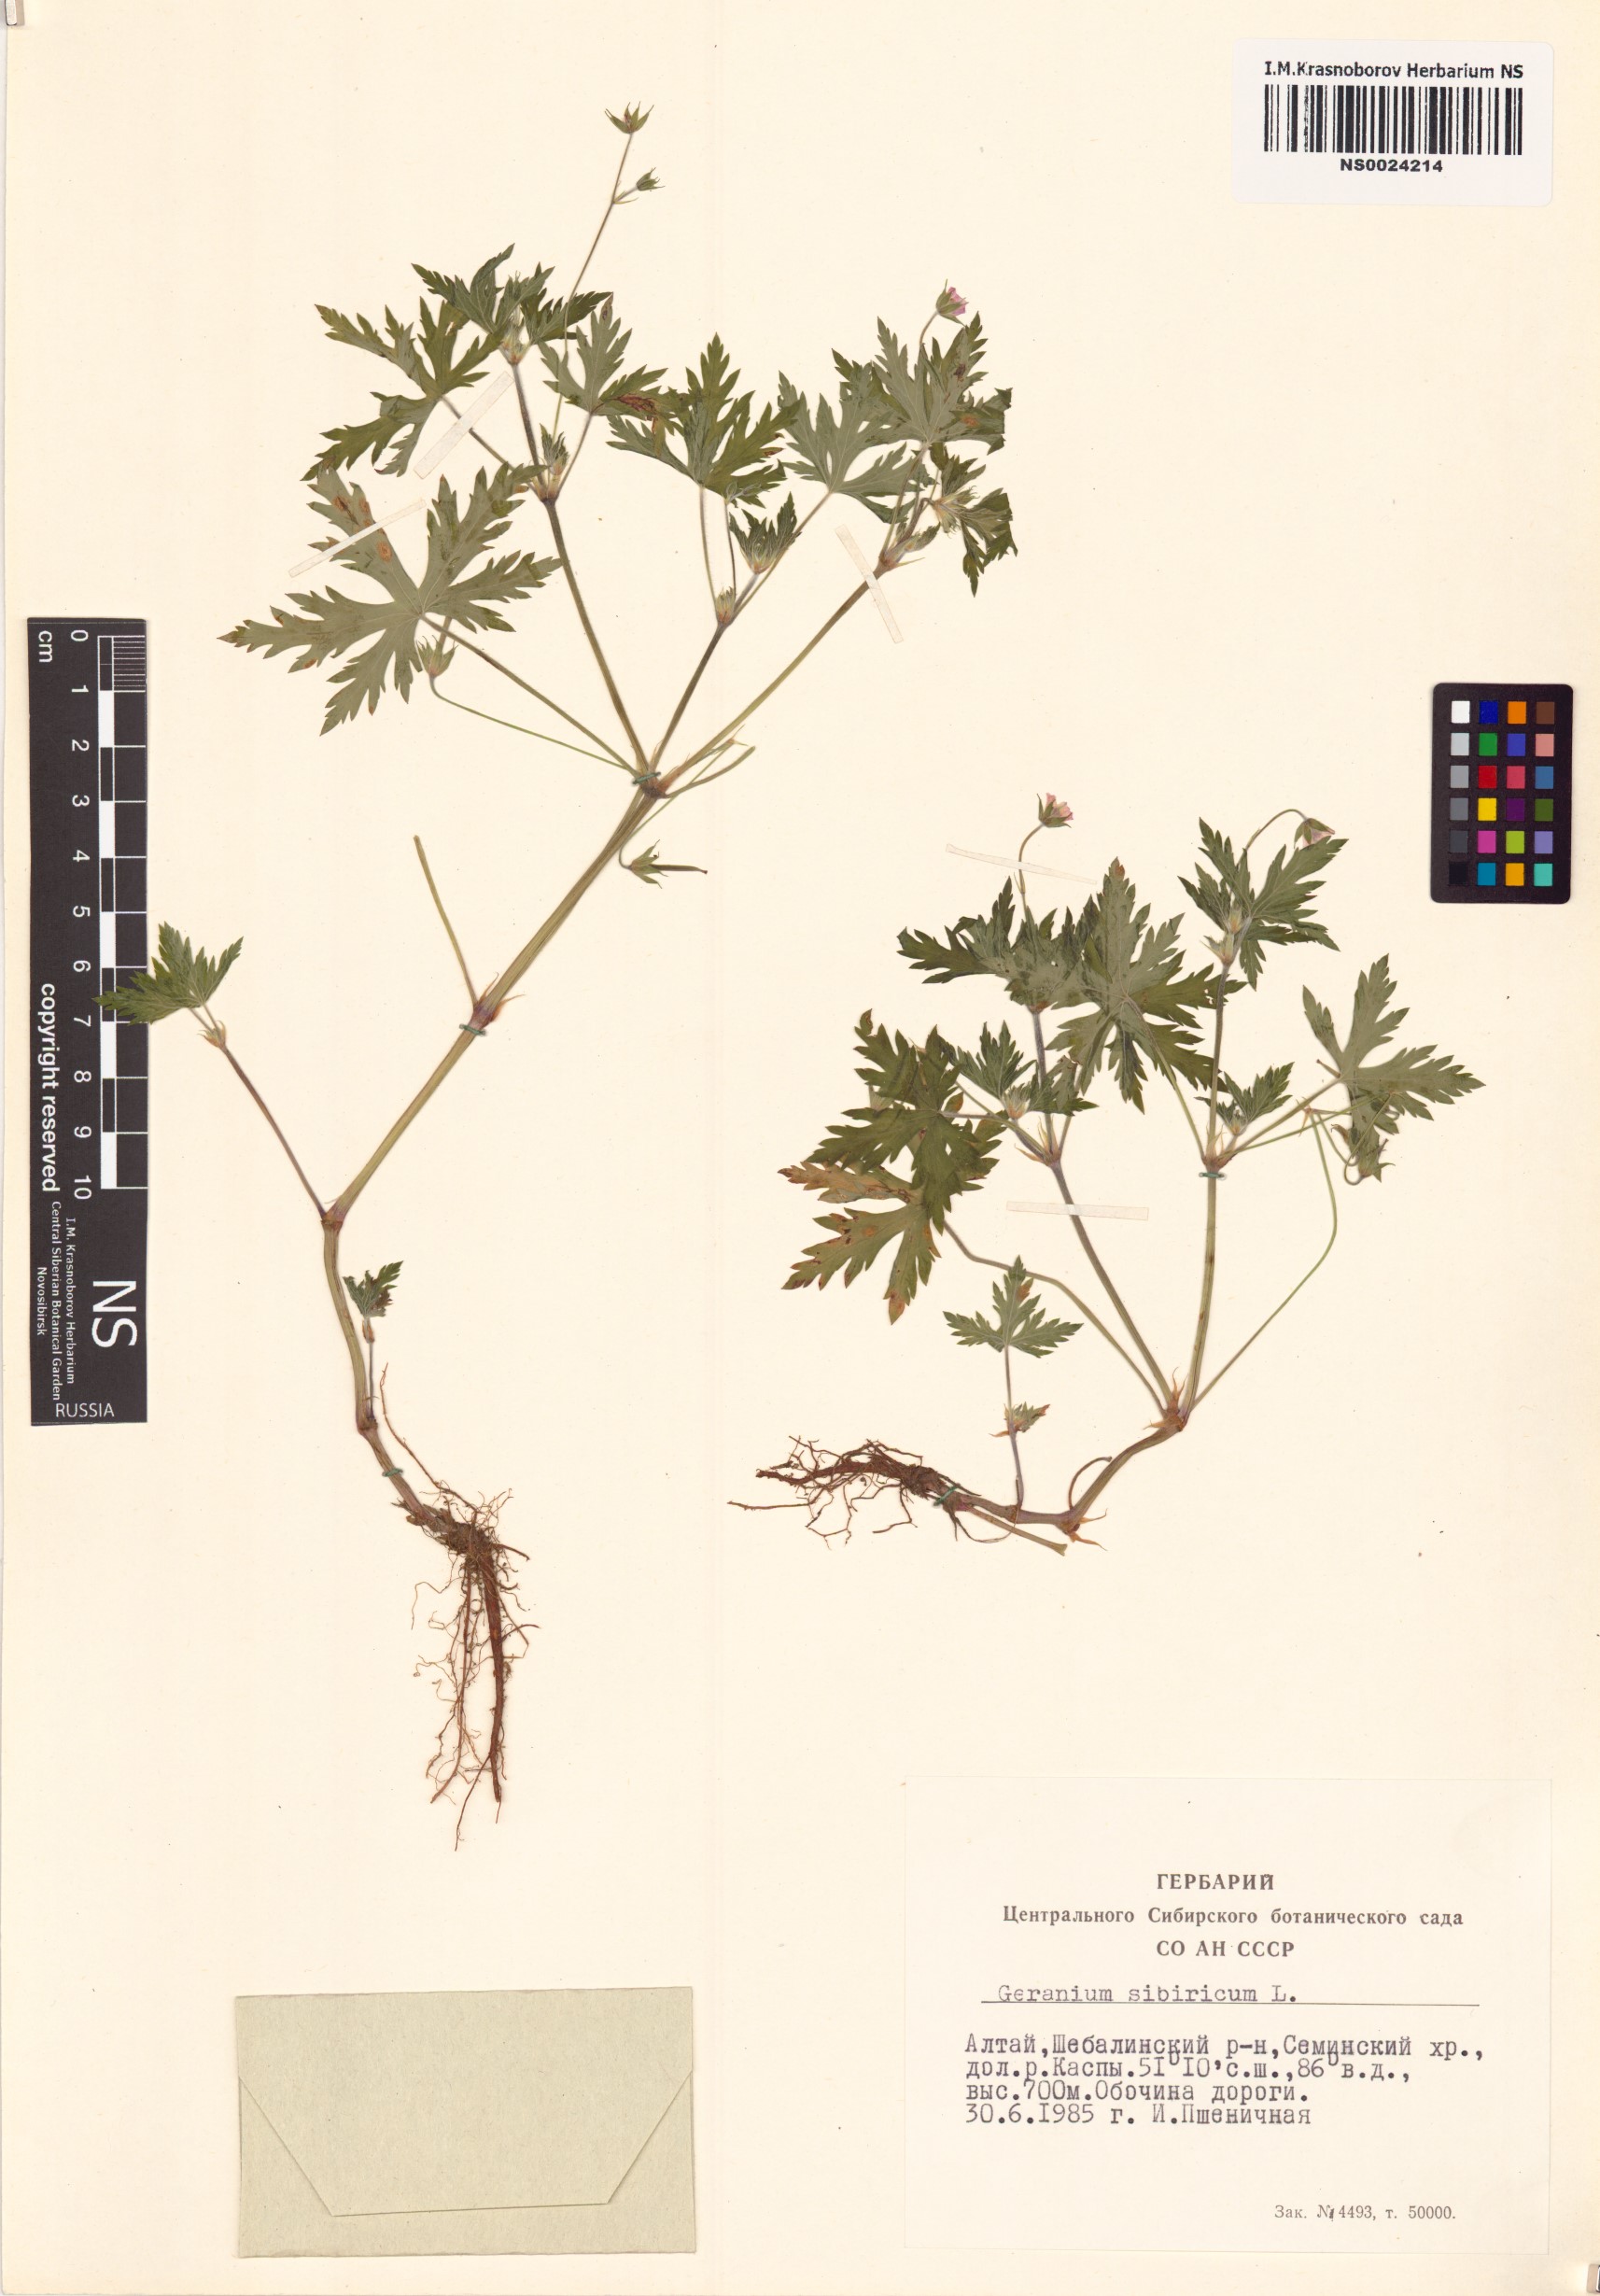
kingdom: Plantae
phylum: Tracheophyta
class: Magnoliopsida
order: Geraniales
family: Geraniaceae
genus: Geranium
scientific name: Geranium sibiricum
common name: Siberian crane's-bill
